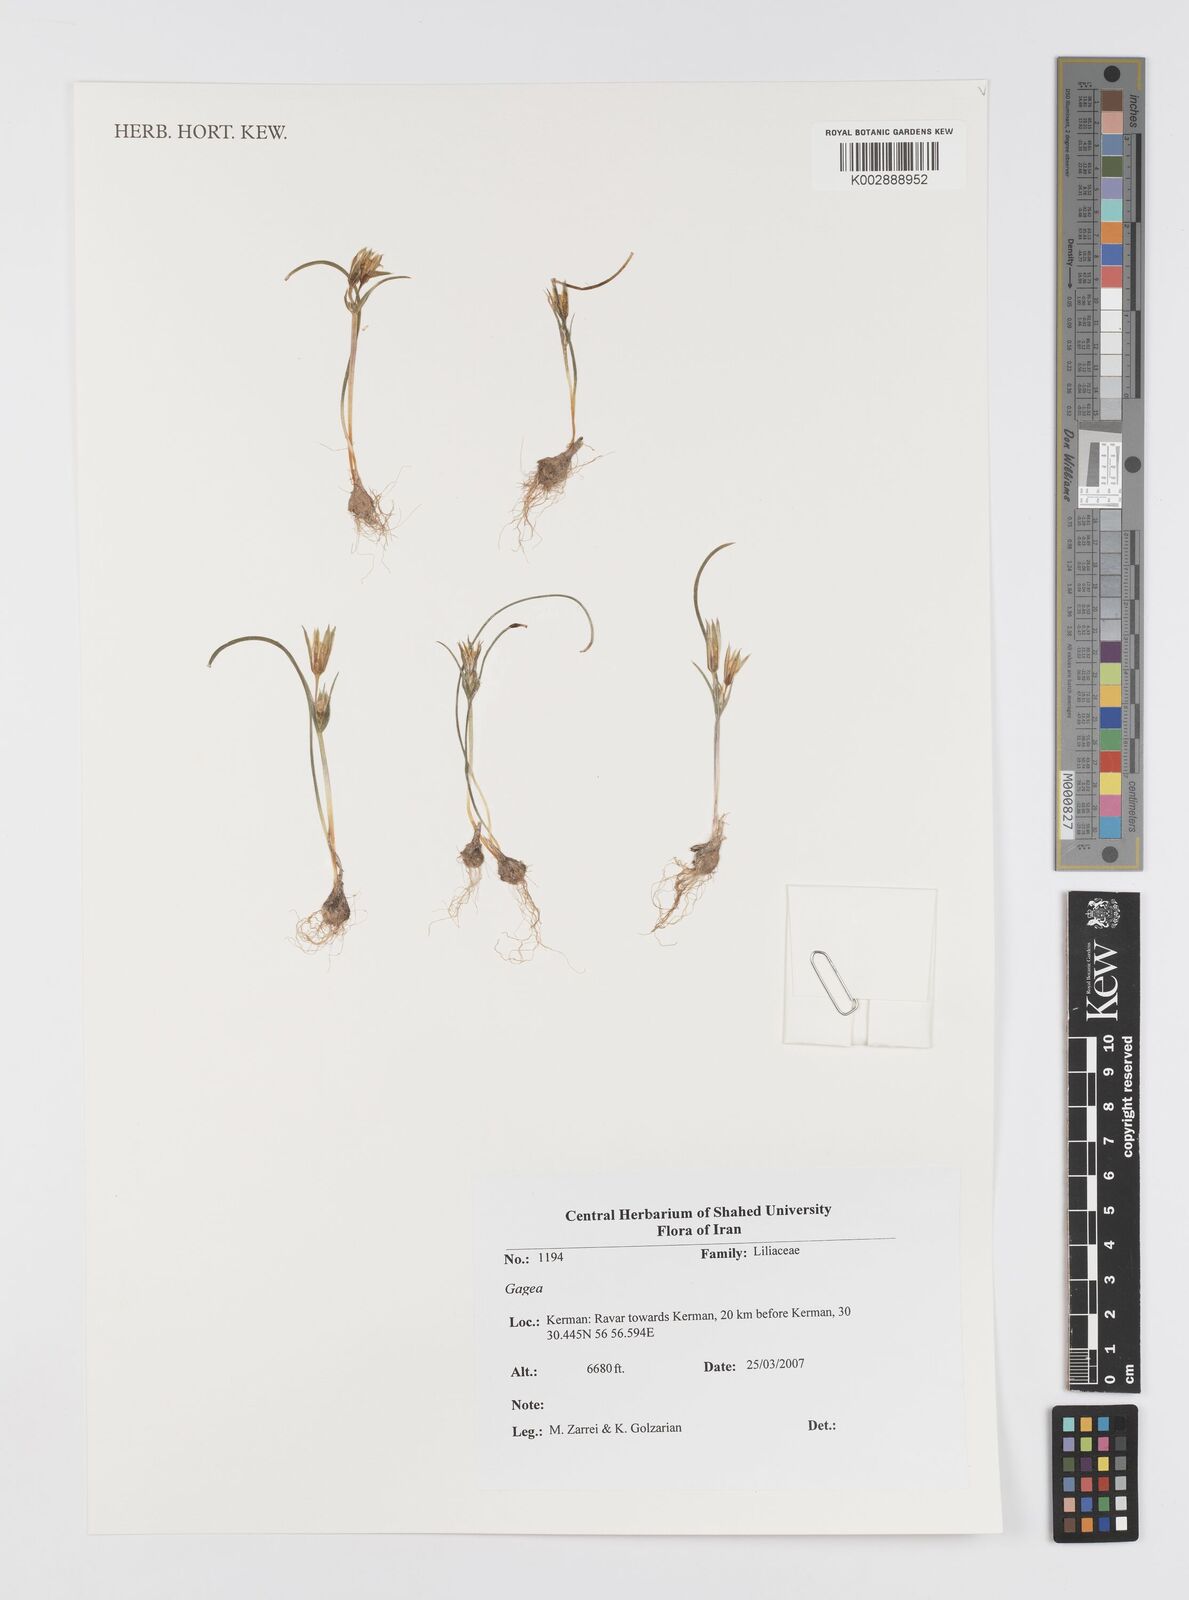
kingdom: Plantae
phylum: Tracheophyta
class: Liliopsida
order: Liliales
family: Liliaceae
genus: Gagea
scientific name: Gagea
